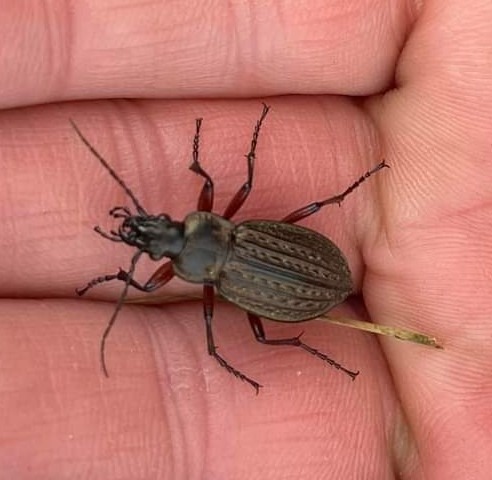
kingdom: Animalia
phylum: Arthropoda
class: Insecta
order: Coleoptera
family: Carabidae
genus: Carabus
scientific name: Carabus granulatus
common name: Kornet løber
